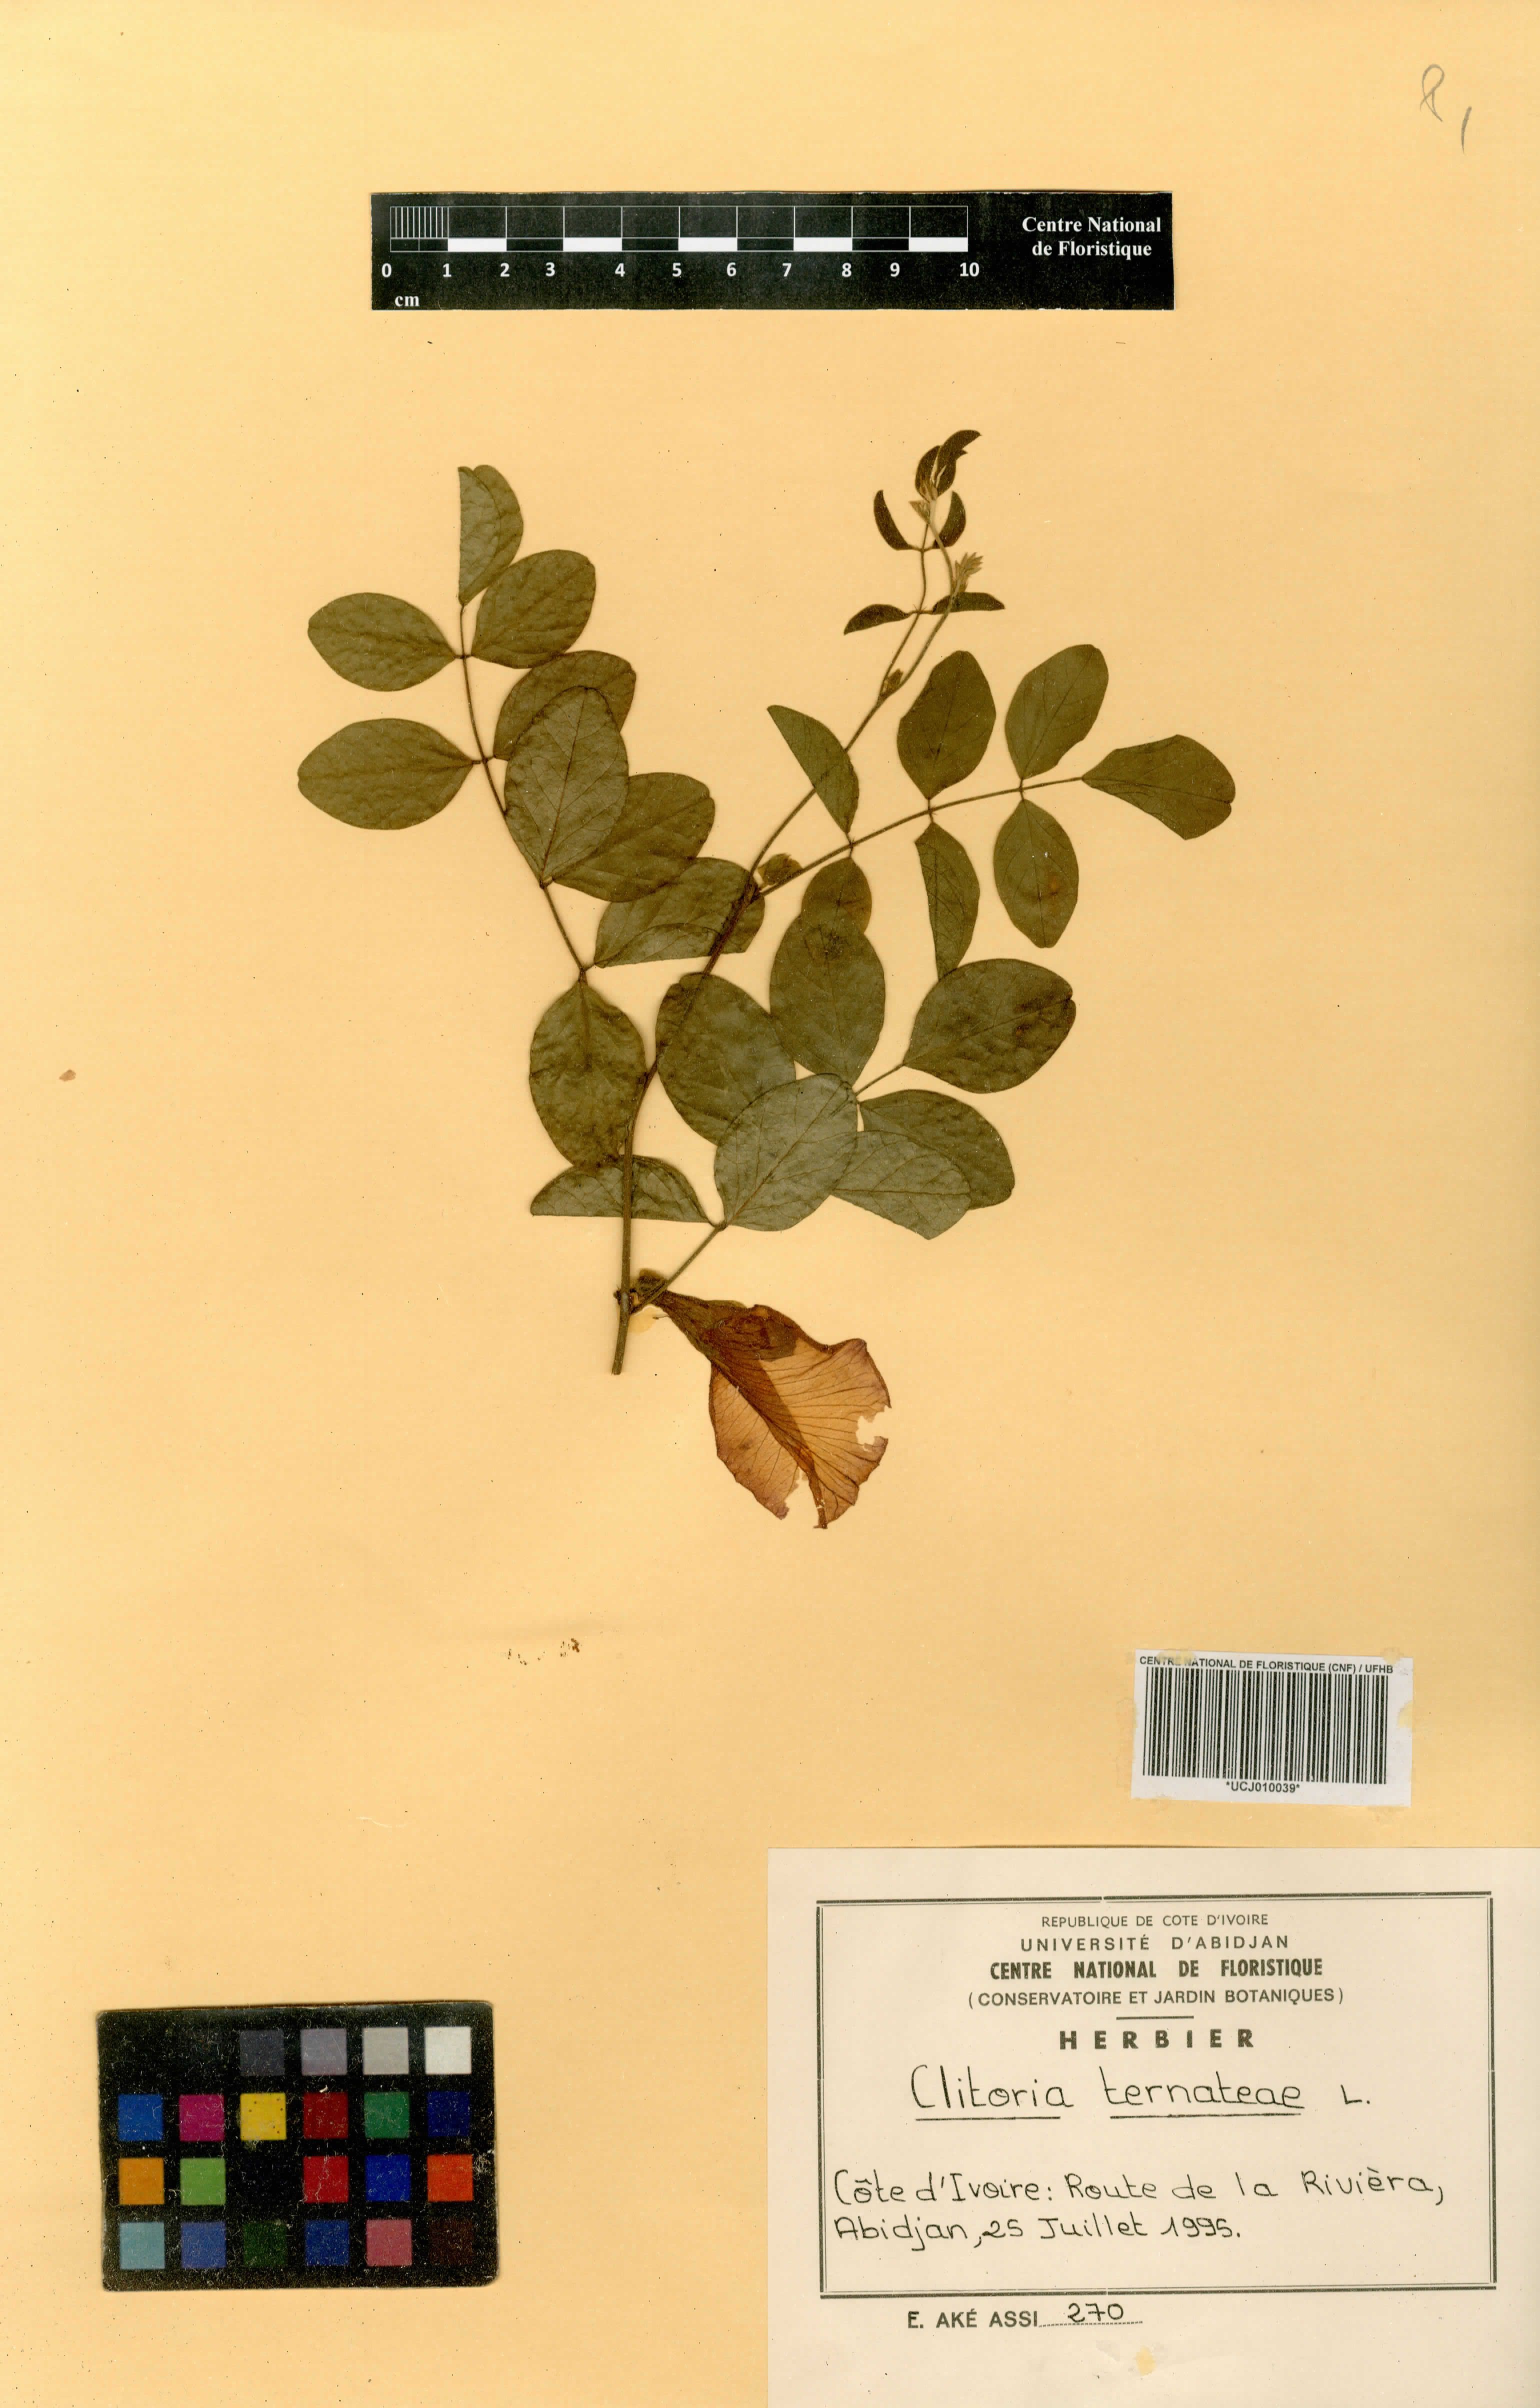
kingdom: Plantae
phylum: Tracheophyta
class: Magnoliopsida
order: Fabales
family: Fabaceae
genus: Clitoria
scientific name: Clitoria ternatea
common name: Asian pigeonwings
